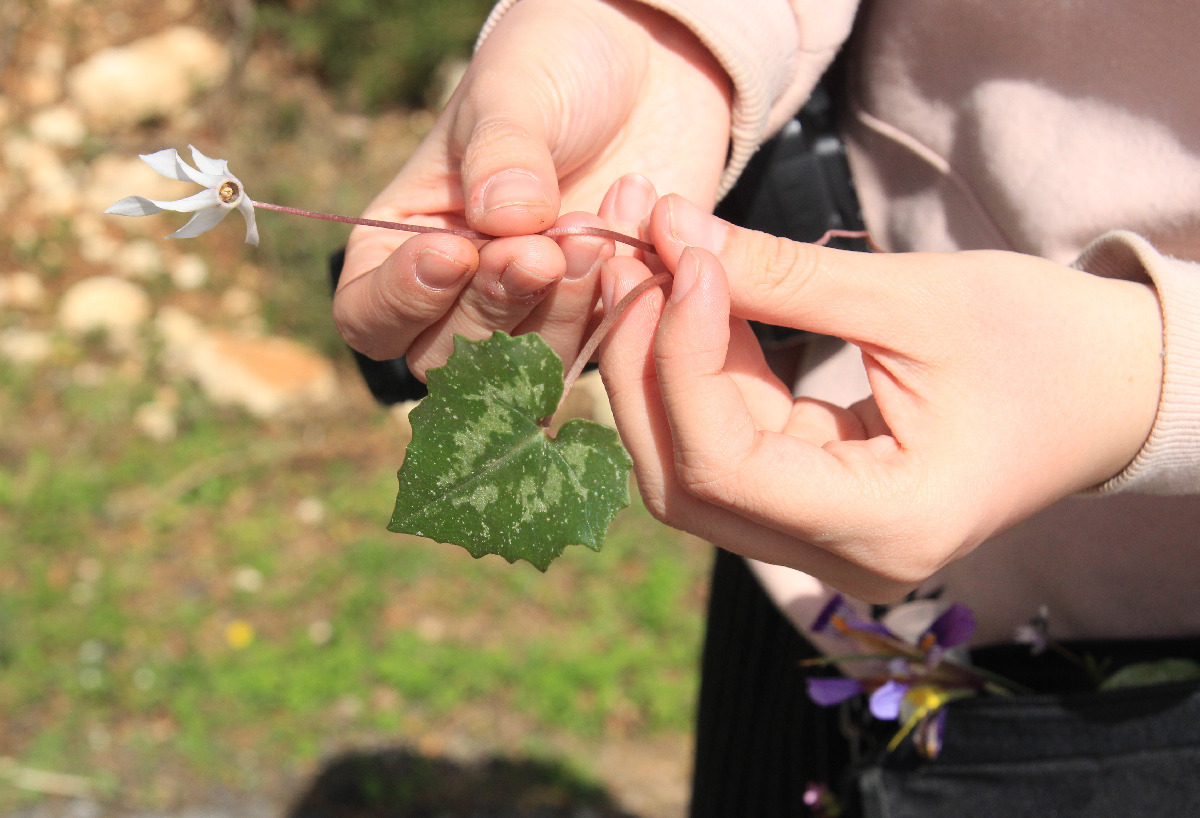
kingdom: Plantae
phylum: Tracheophyta
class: Magnoliopsida
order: Ericales
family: Primulaceae
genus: Cyclamen
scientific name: Cyclamen creticum
